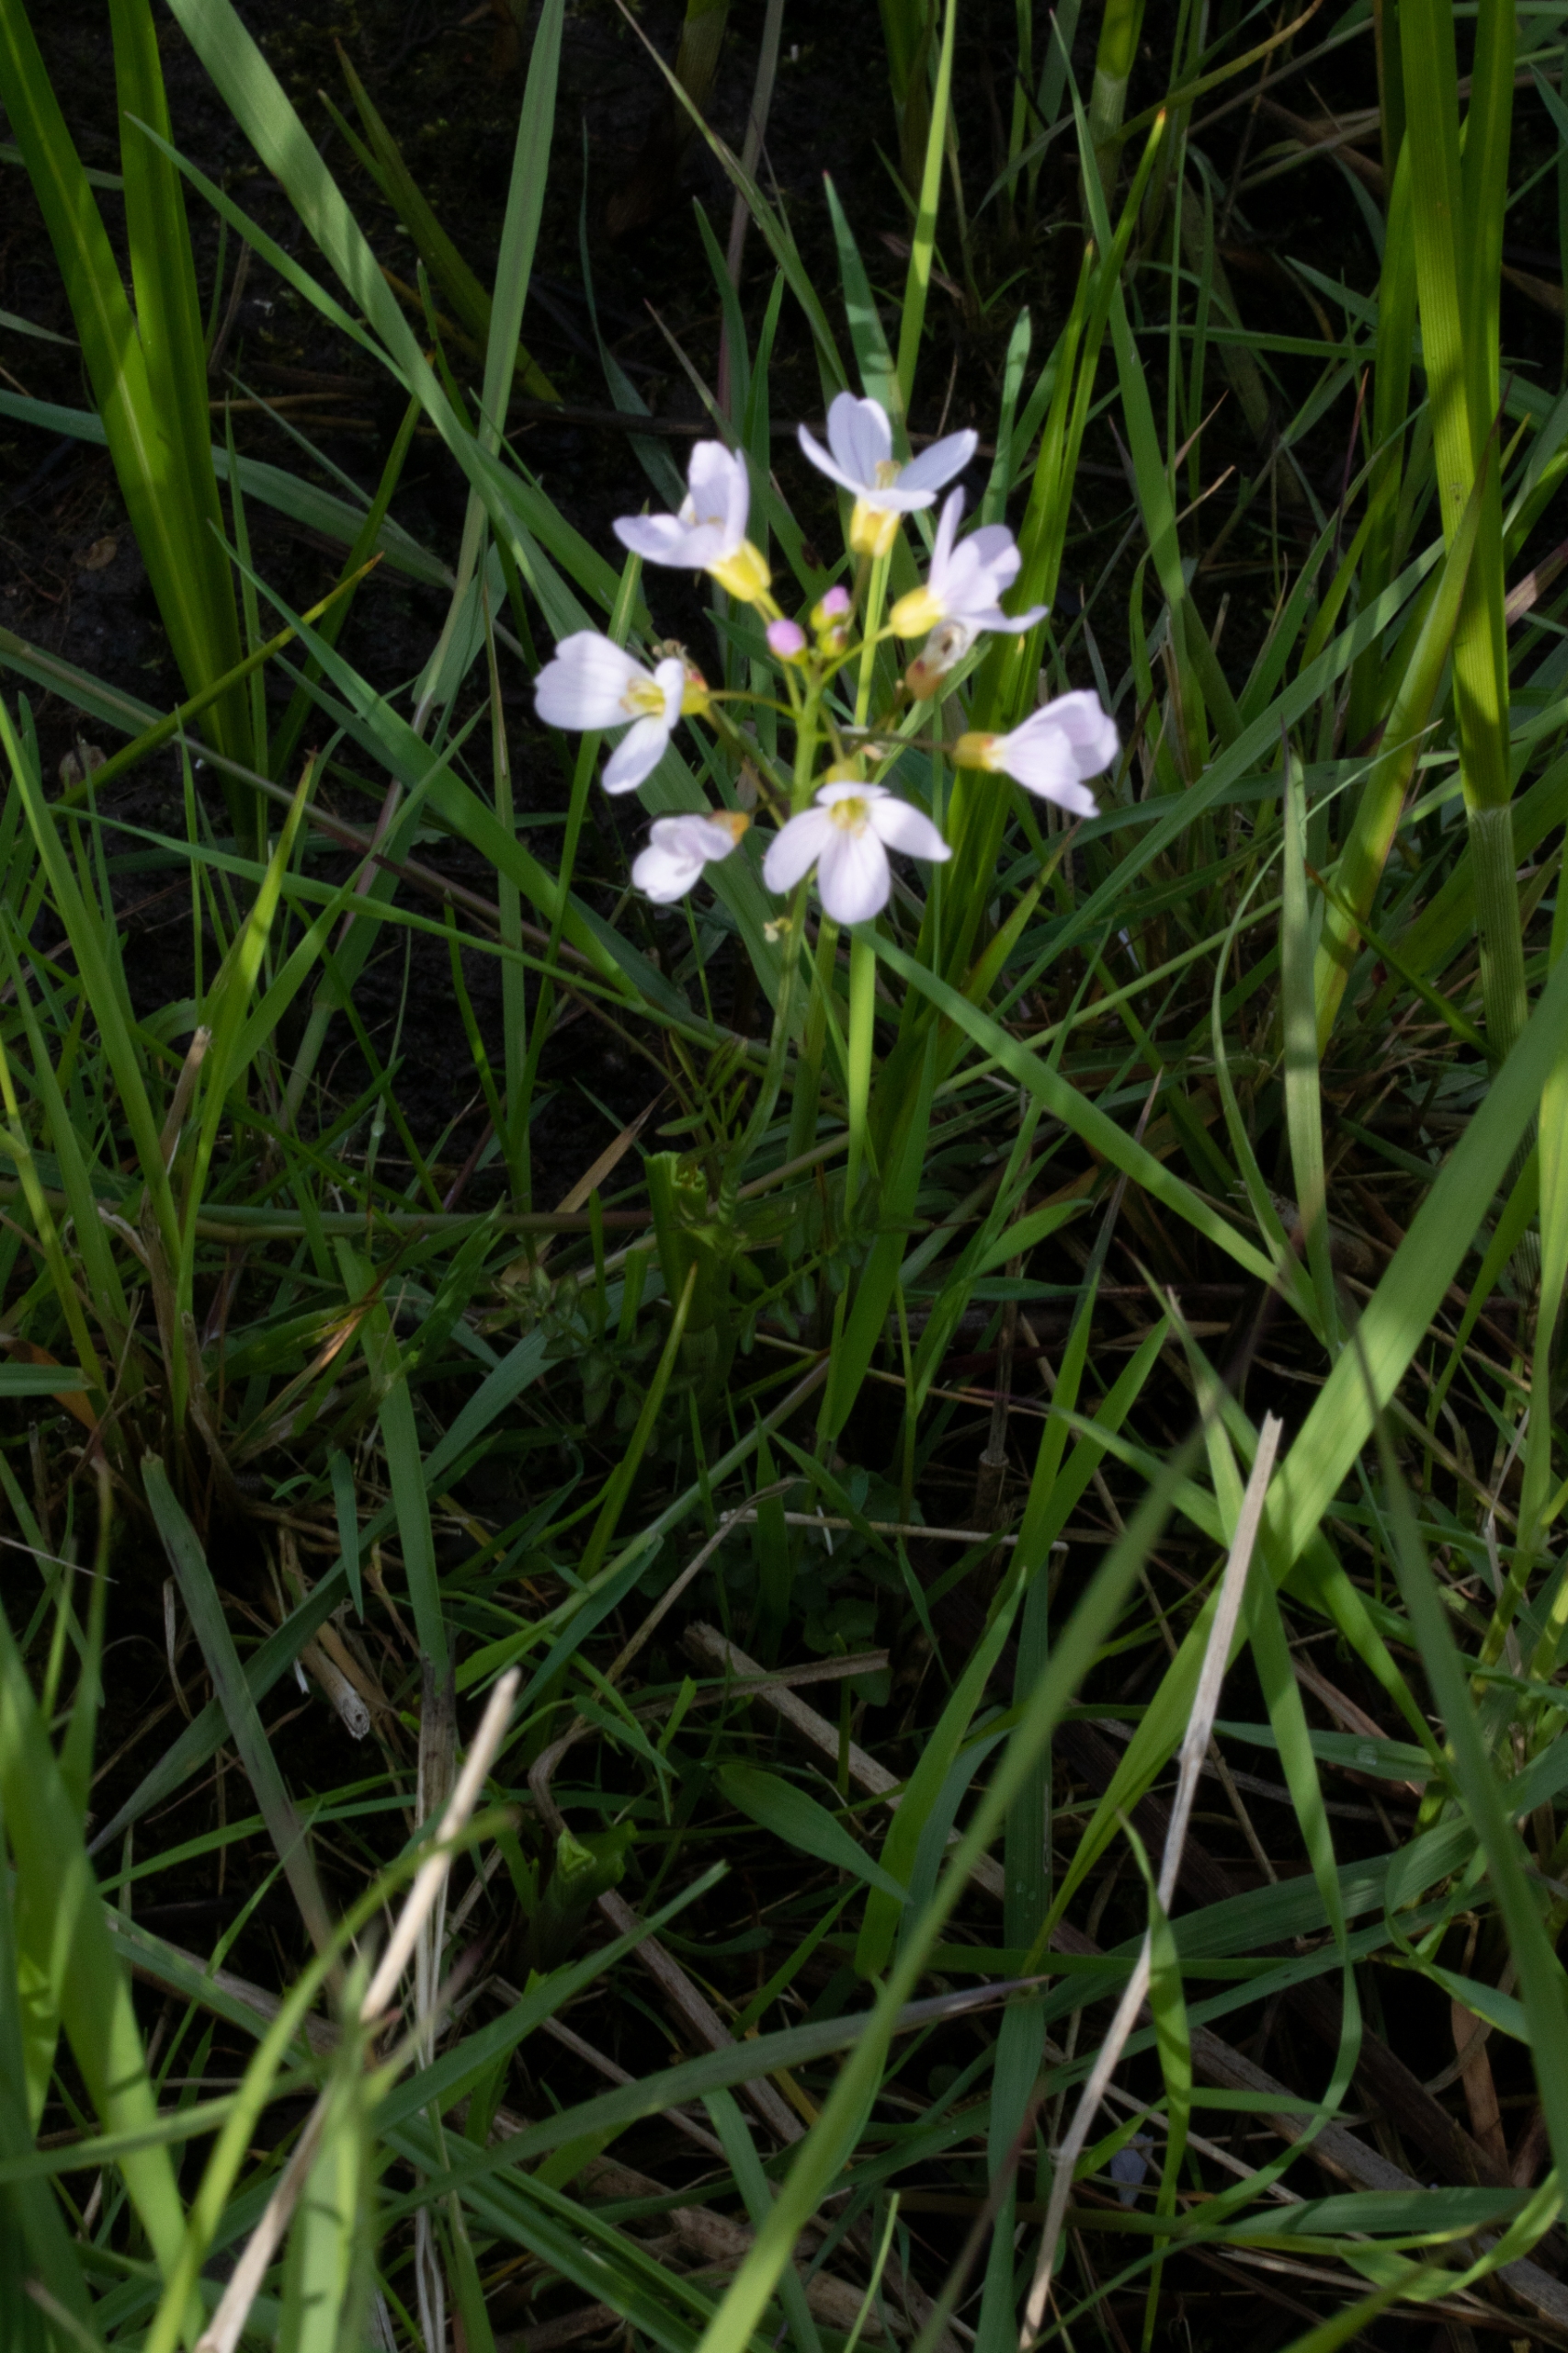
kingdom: Plantae
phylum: Tracheophyta
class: Magnoliopsida
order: Brassicales
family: Brassicaceae
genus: Cardamine
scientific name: Cardamine pratensis
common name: Engkarse
